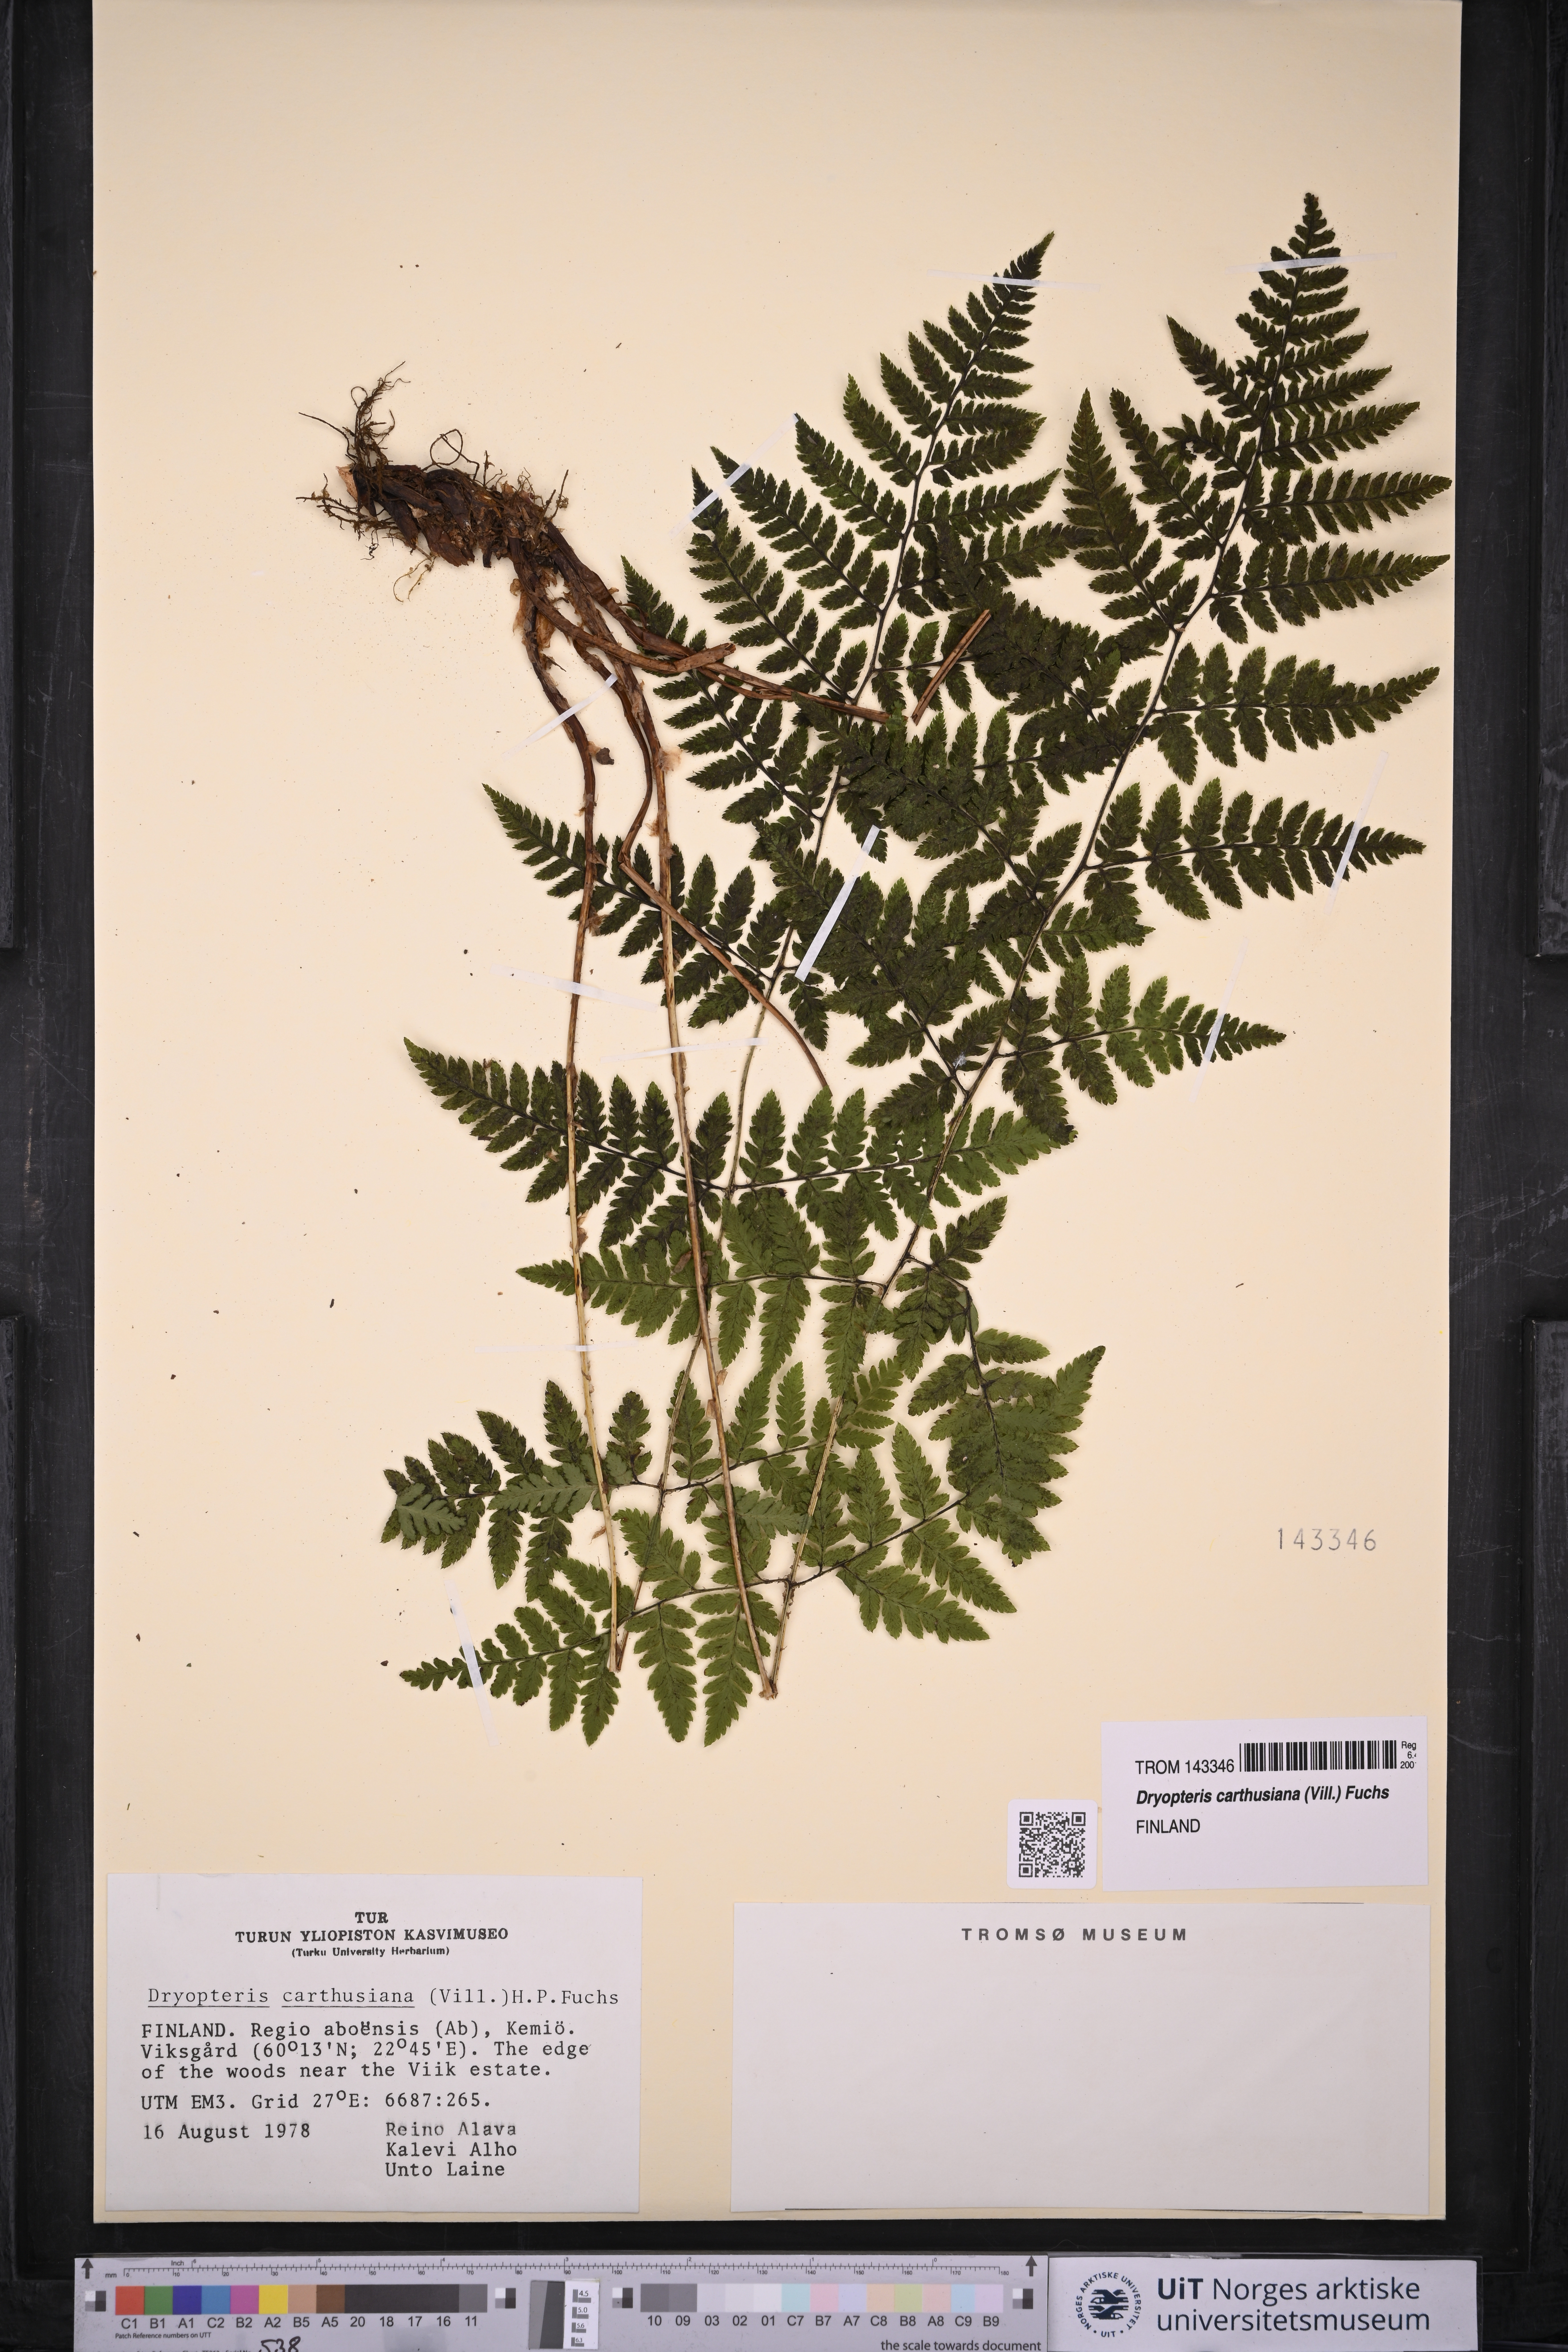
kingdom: Plantae
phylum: Tracheophyta
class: Polypodiopsida
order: Polypodiales
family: Dryopteridaceae
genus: Dryopteris
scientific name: Dryopteris carthusiana
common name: Narrow buckler-fern
